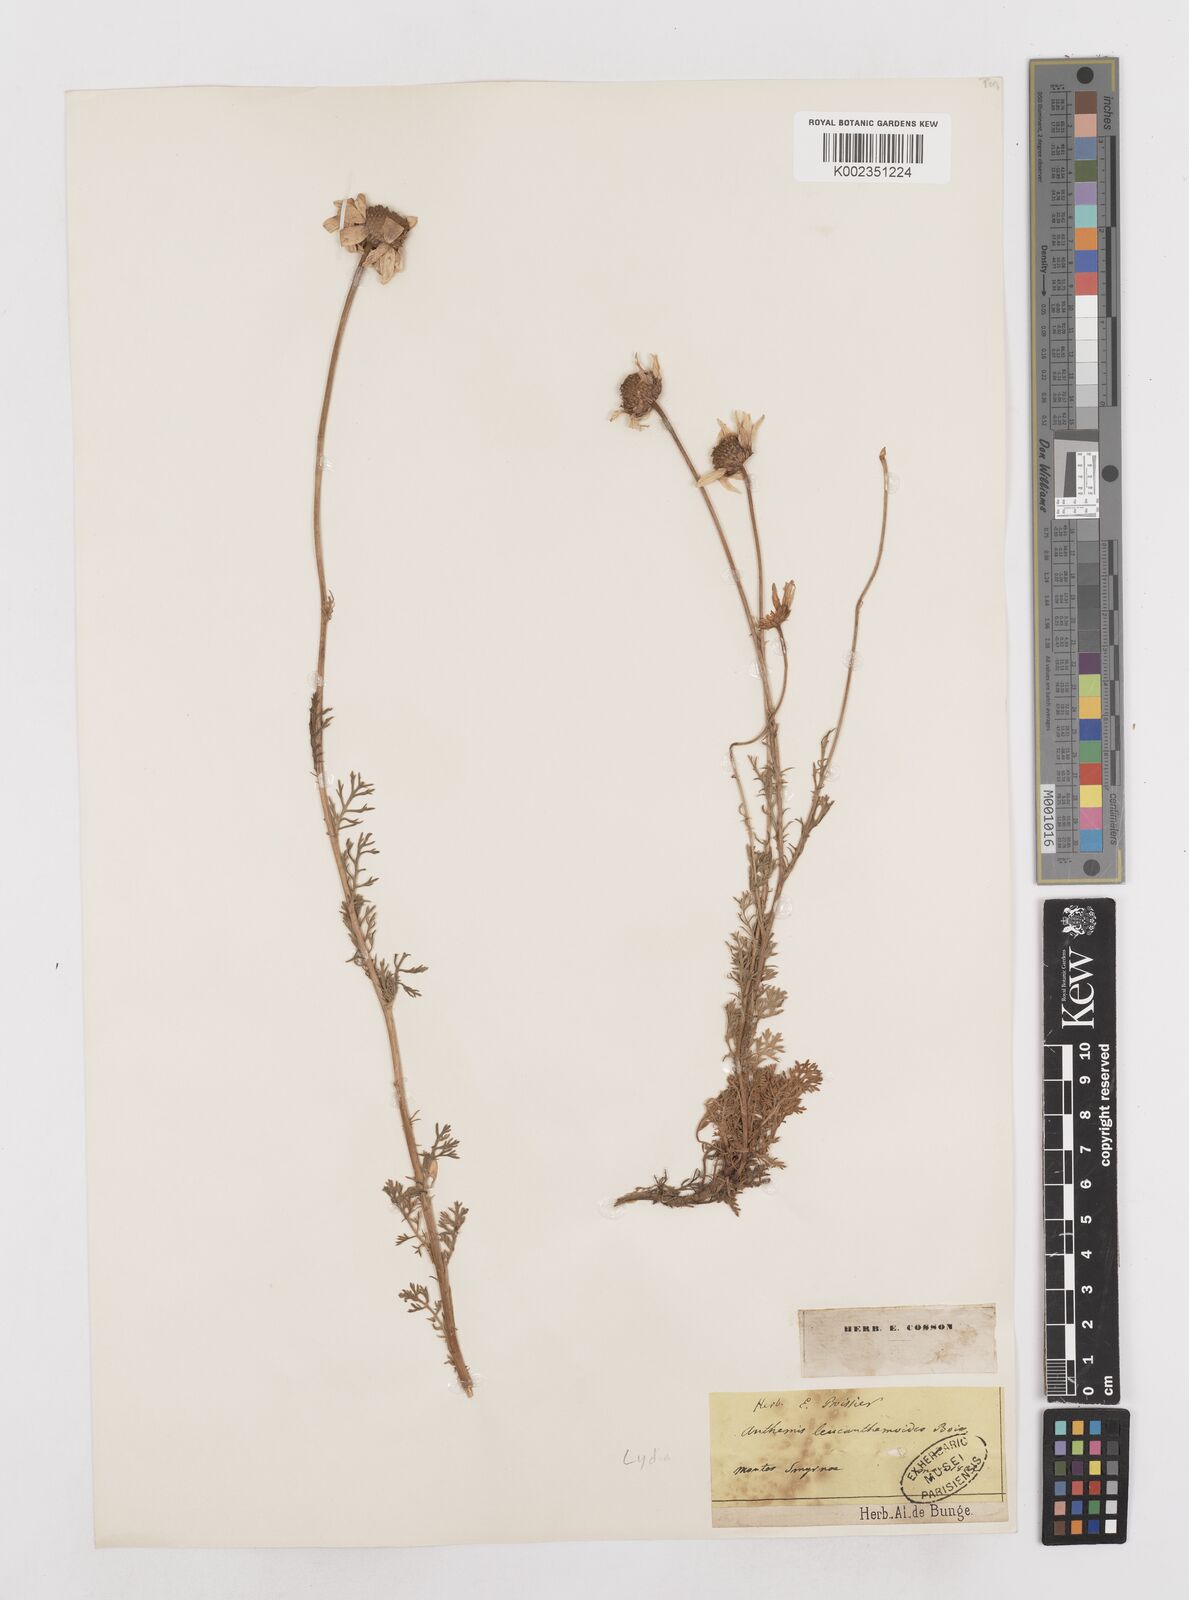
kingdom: Plantae
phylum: Tracheophyta
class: Magnoliopsida
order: Asterales
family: Asteraceae
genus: Anthemis
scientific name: Anthemis cretica
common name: Mountain dog-daisy
